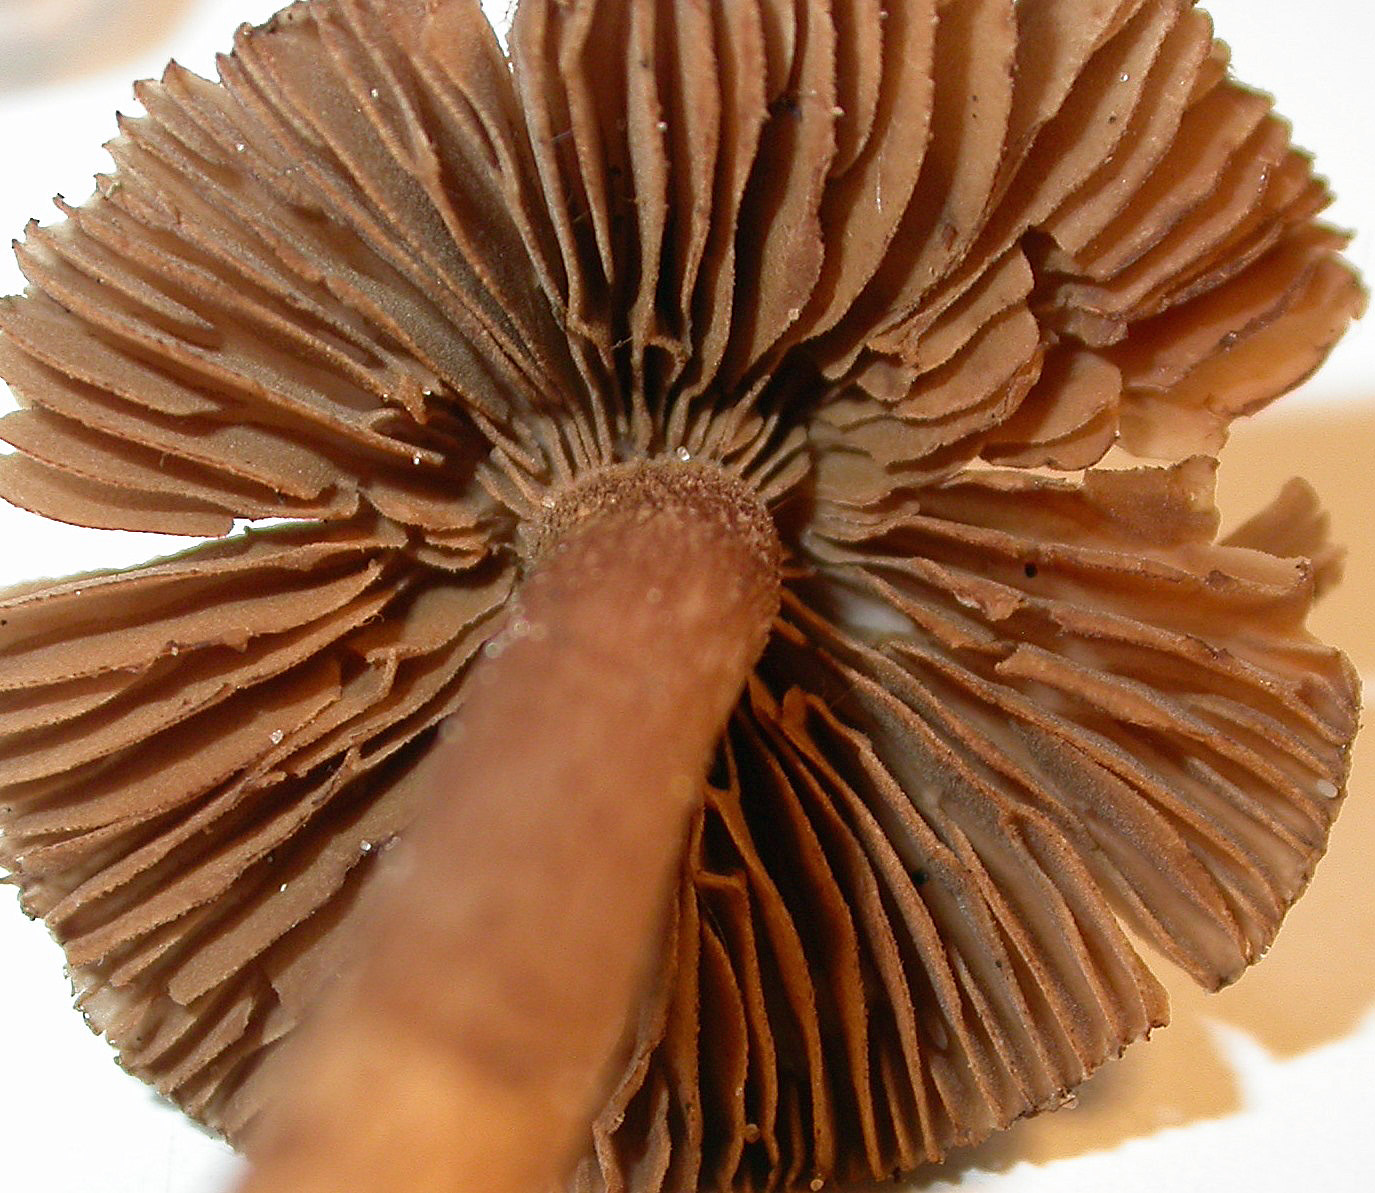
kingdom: Fungi
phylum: Basidiomycota
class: Agaricomycetes
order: Agaricales
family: Inocybaceae
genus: Inocybe
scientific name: Inocybe cincinnata
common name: lillabladet trævlhat
